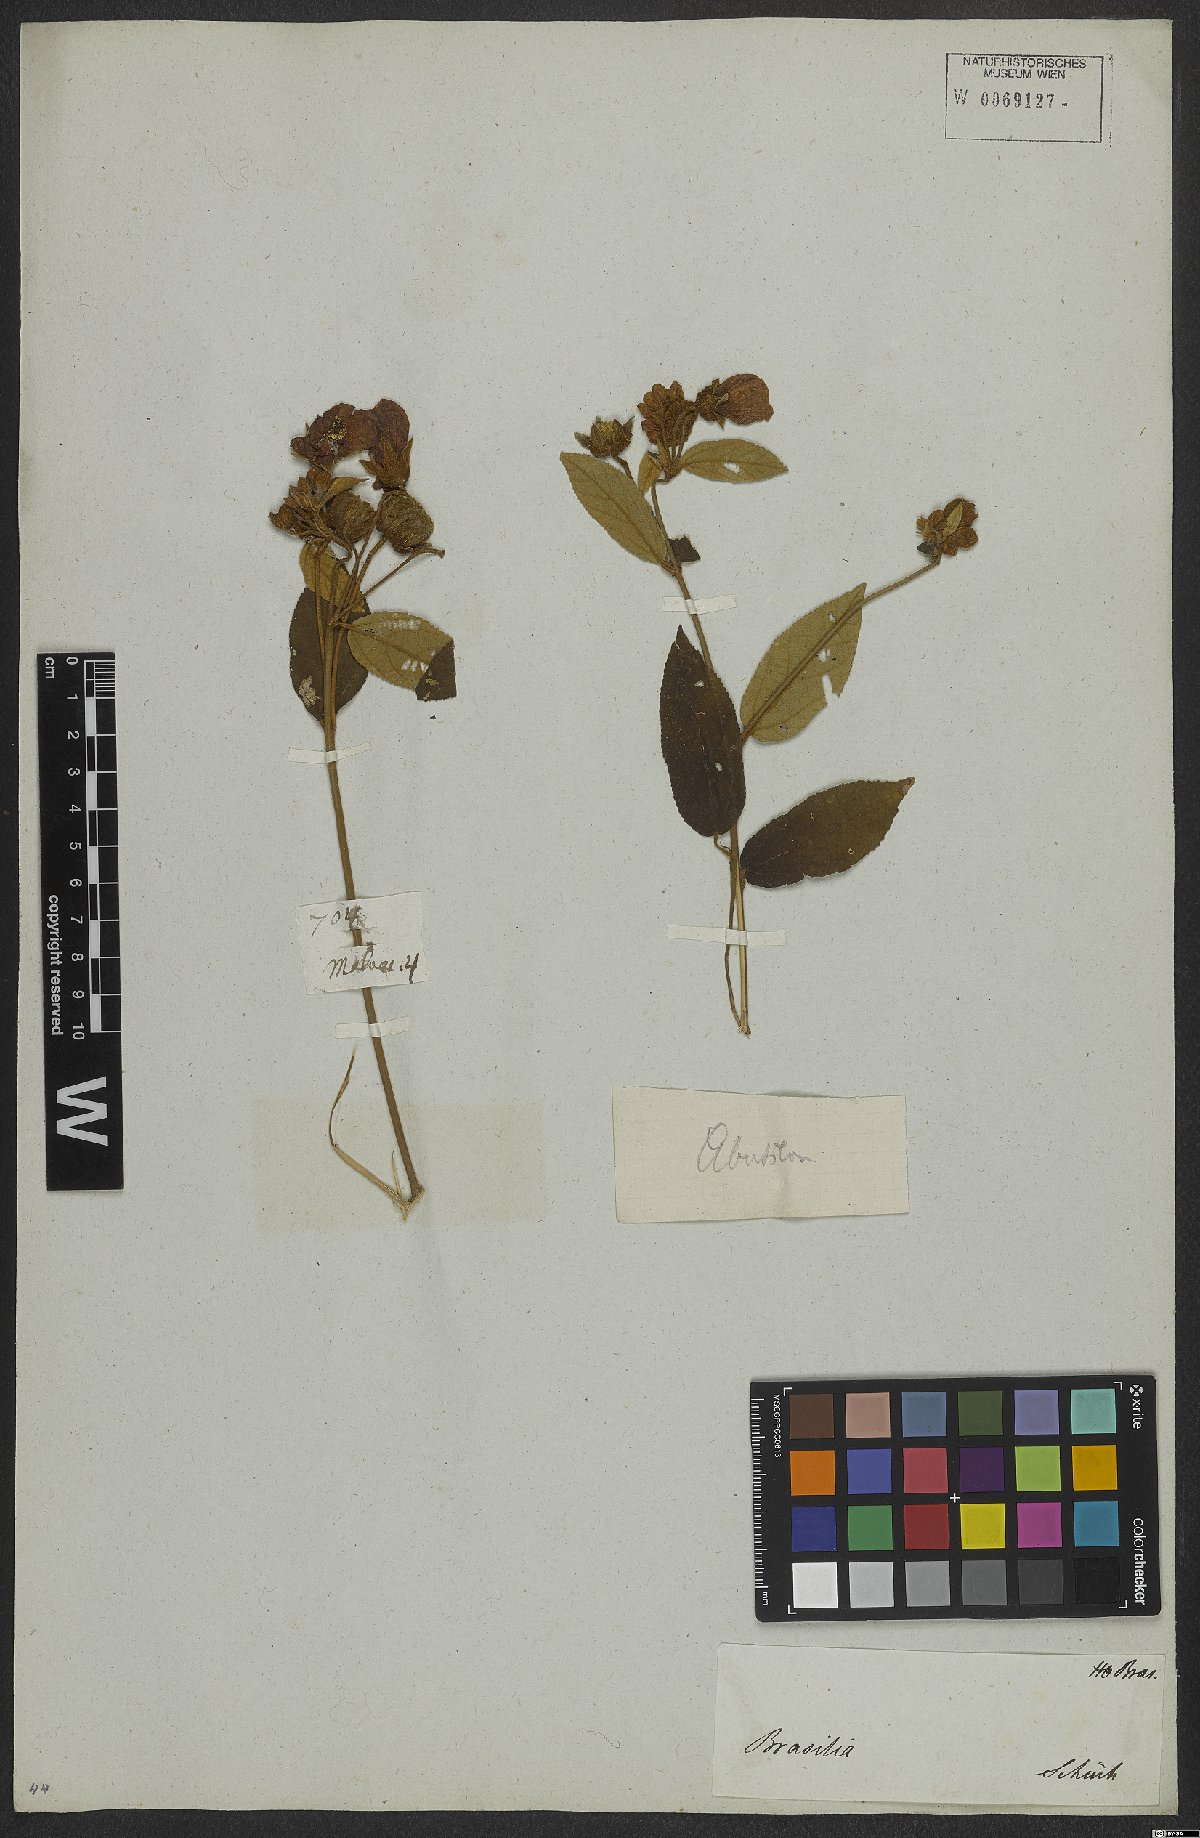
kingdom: Plantae
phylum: Tracheophyta
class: Magnoliopsida
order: Malvales
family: Malvaceae
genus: Callianthe
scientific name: Callianthe rufinerva
